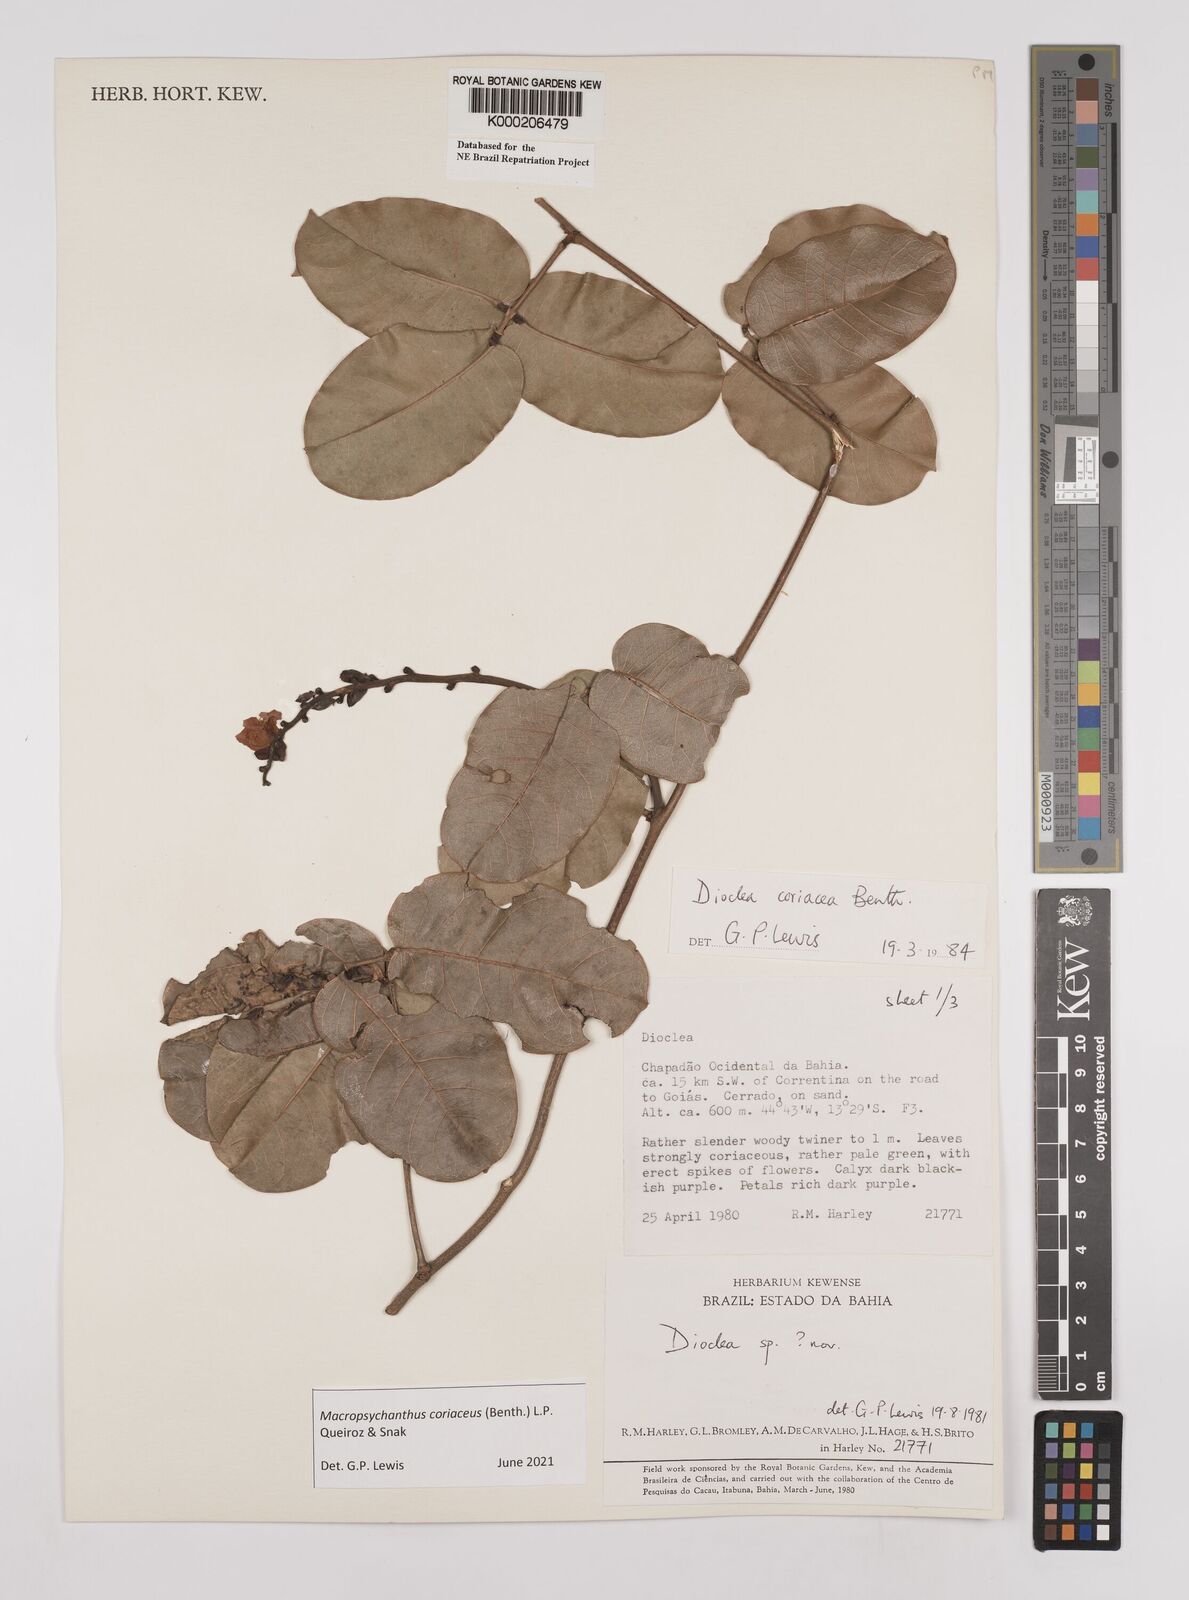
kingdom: Plantae
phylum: Tracheophyta
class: Magnoliopsida
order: Fabales
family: Fabaceae
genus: Macropsychanthus
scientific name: Macropsychanthus coriaceus
